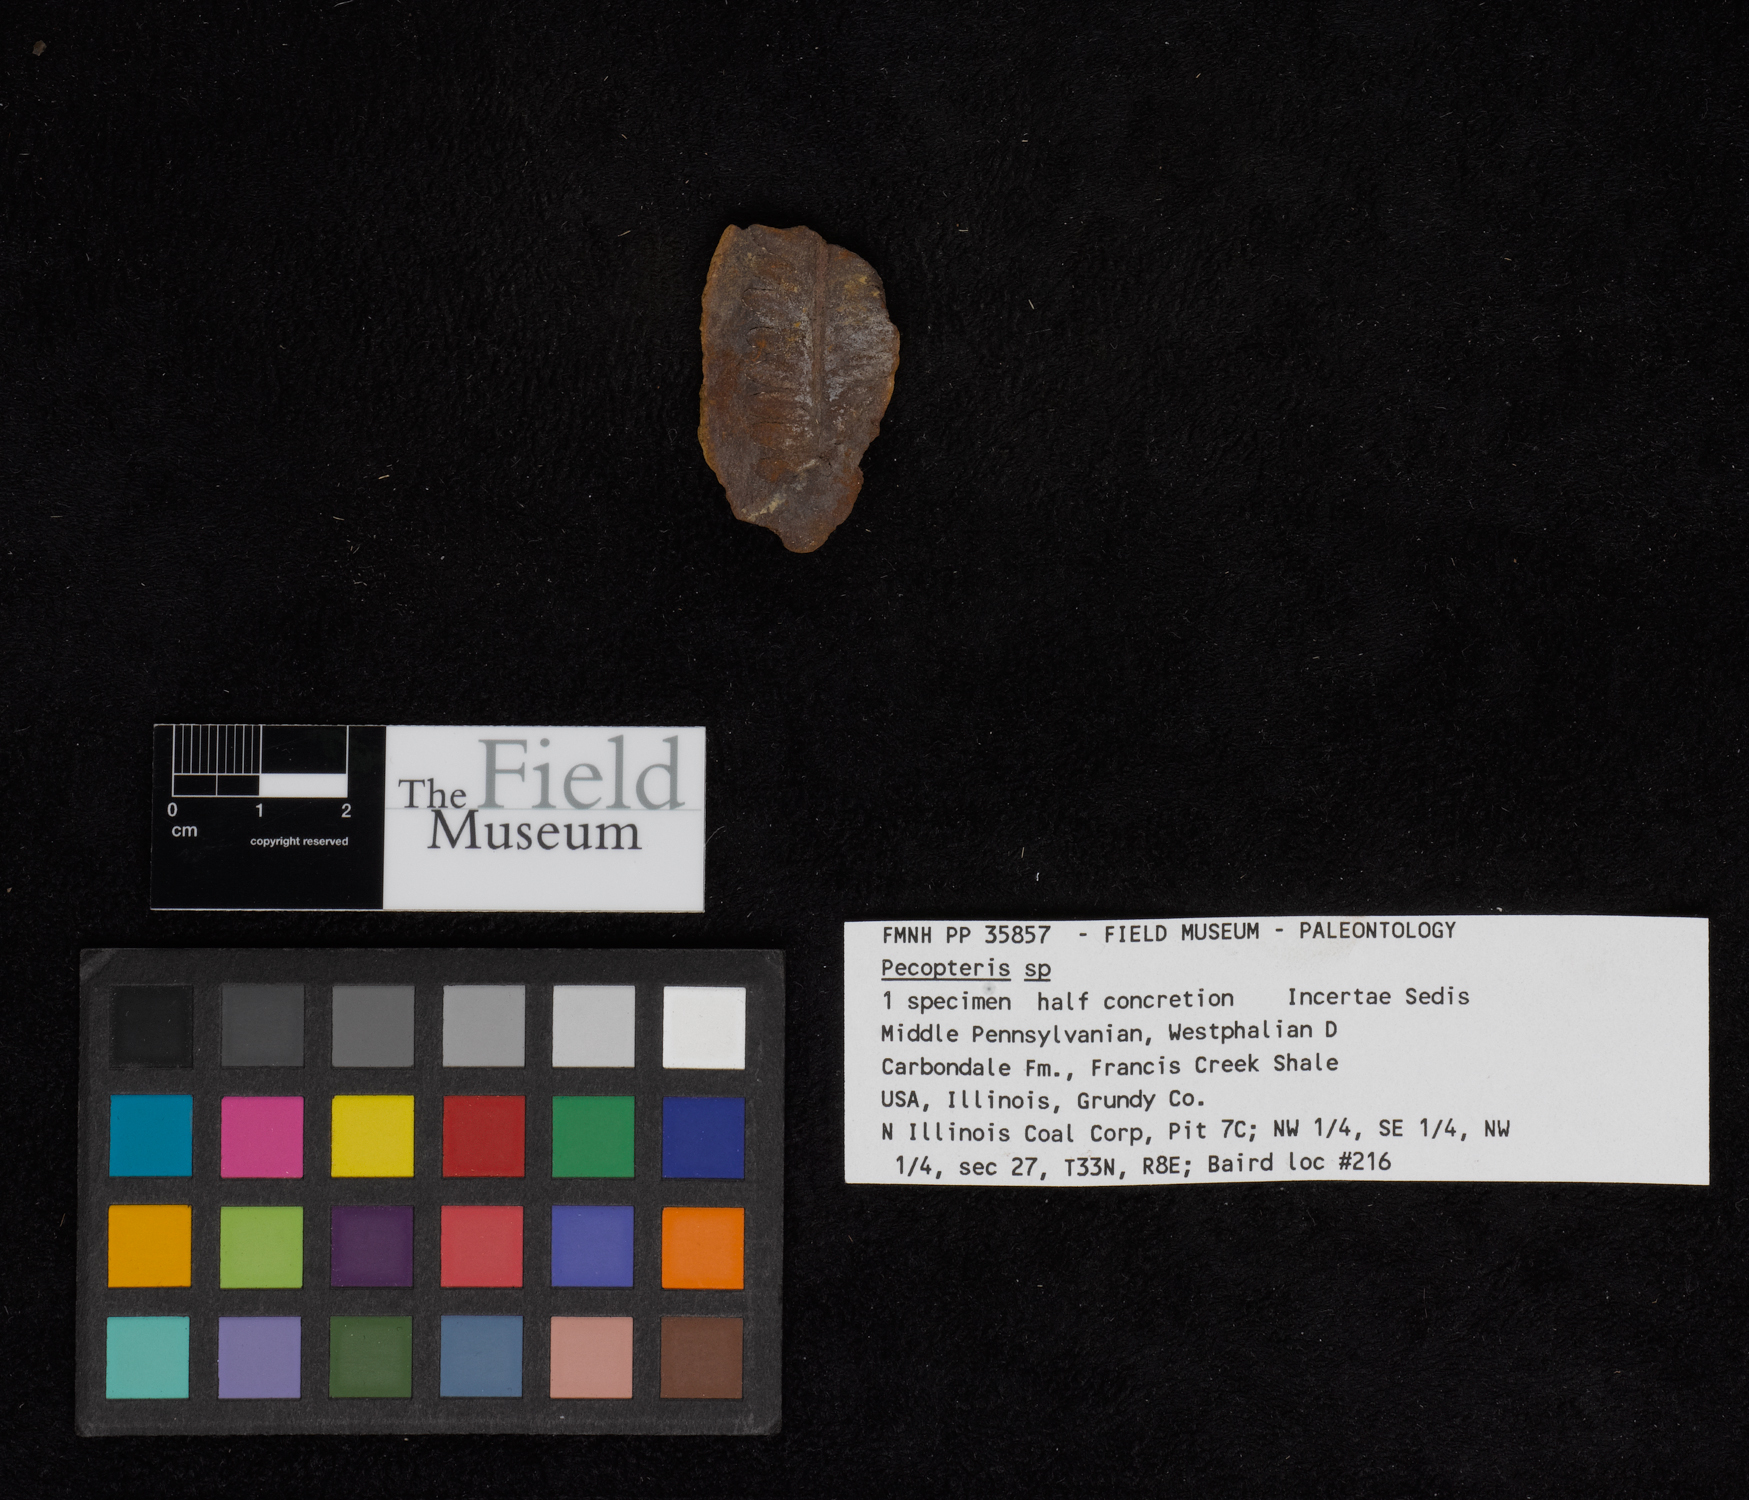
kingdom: Plantae
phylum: Tracheophyta
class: Polypodiopsida
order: Marattiales
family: Asterothecaceae
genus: Pecopteris
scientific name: Pecopteris
